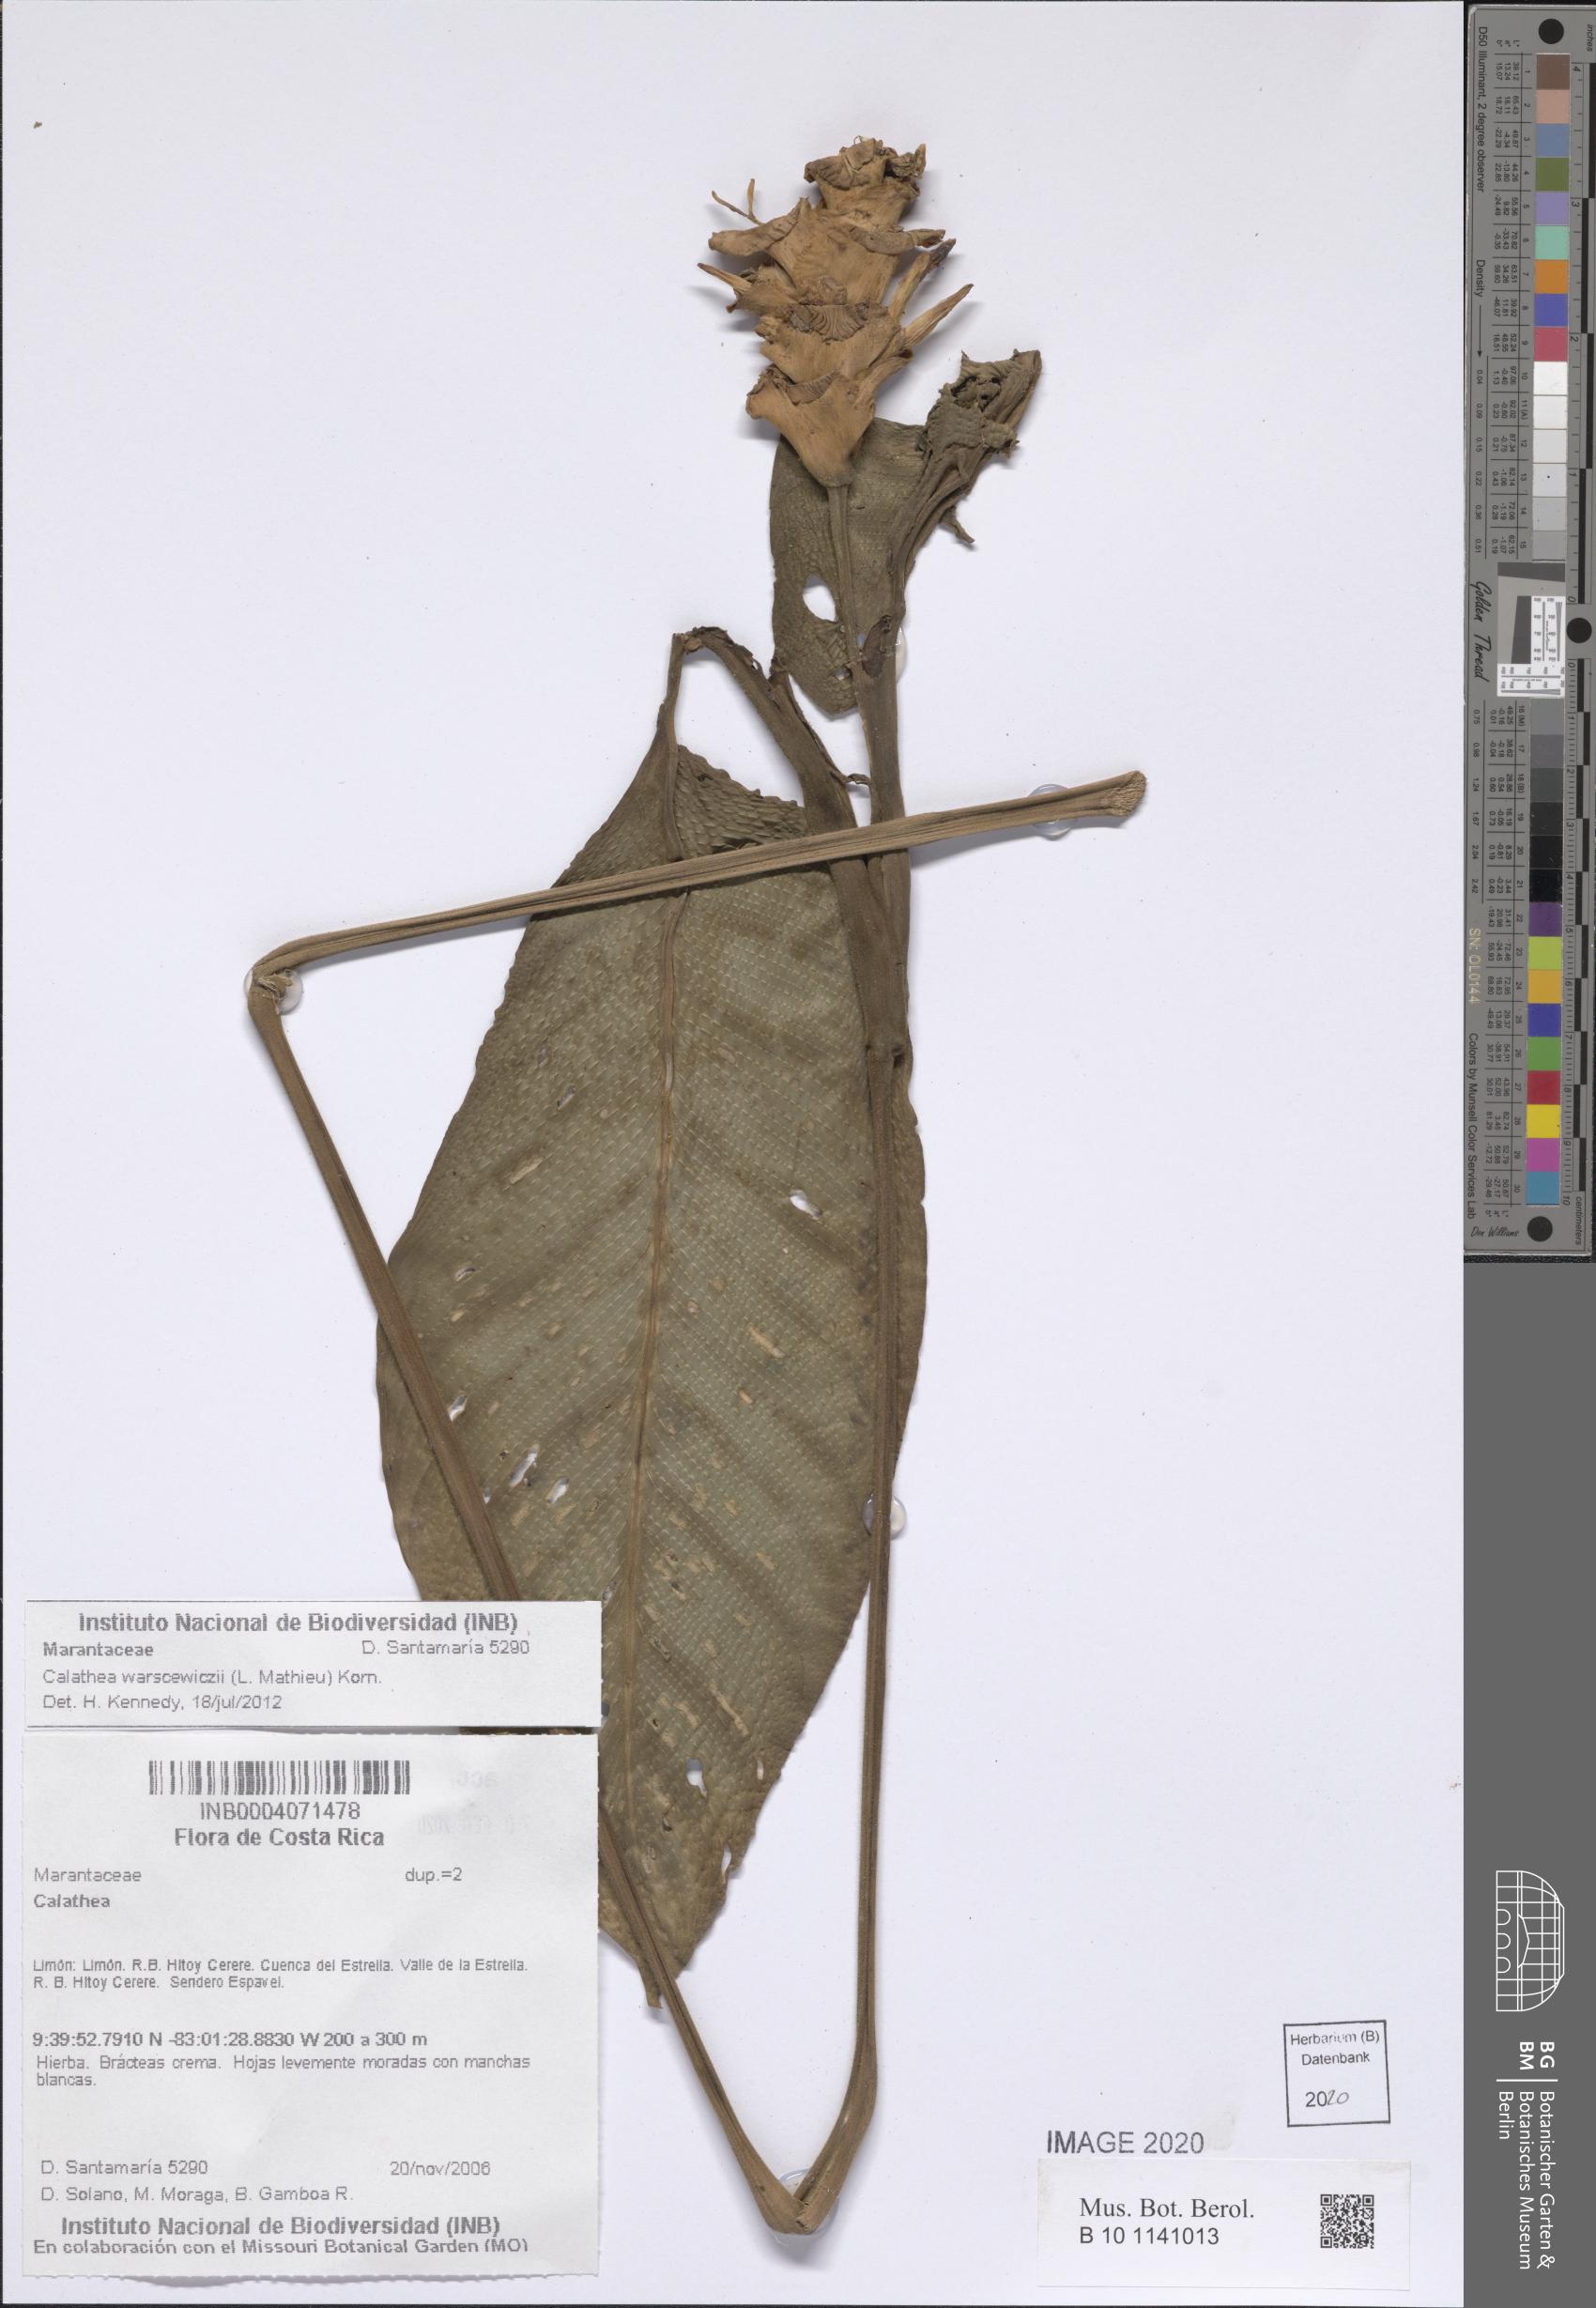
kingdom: Plantae
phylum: Tracheophyta
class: Liliopsida
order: Zingiberales
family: Marantaceae
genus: Goeppertia
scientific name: Goeppertia warszewiczii
